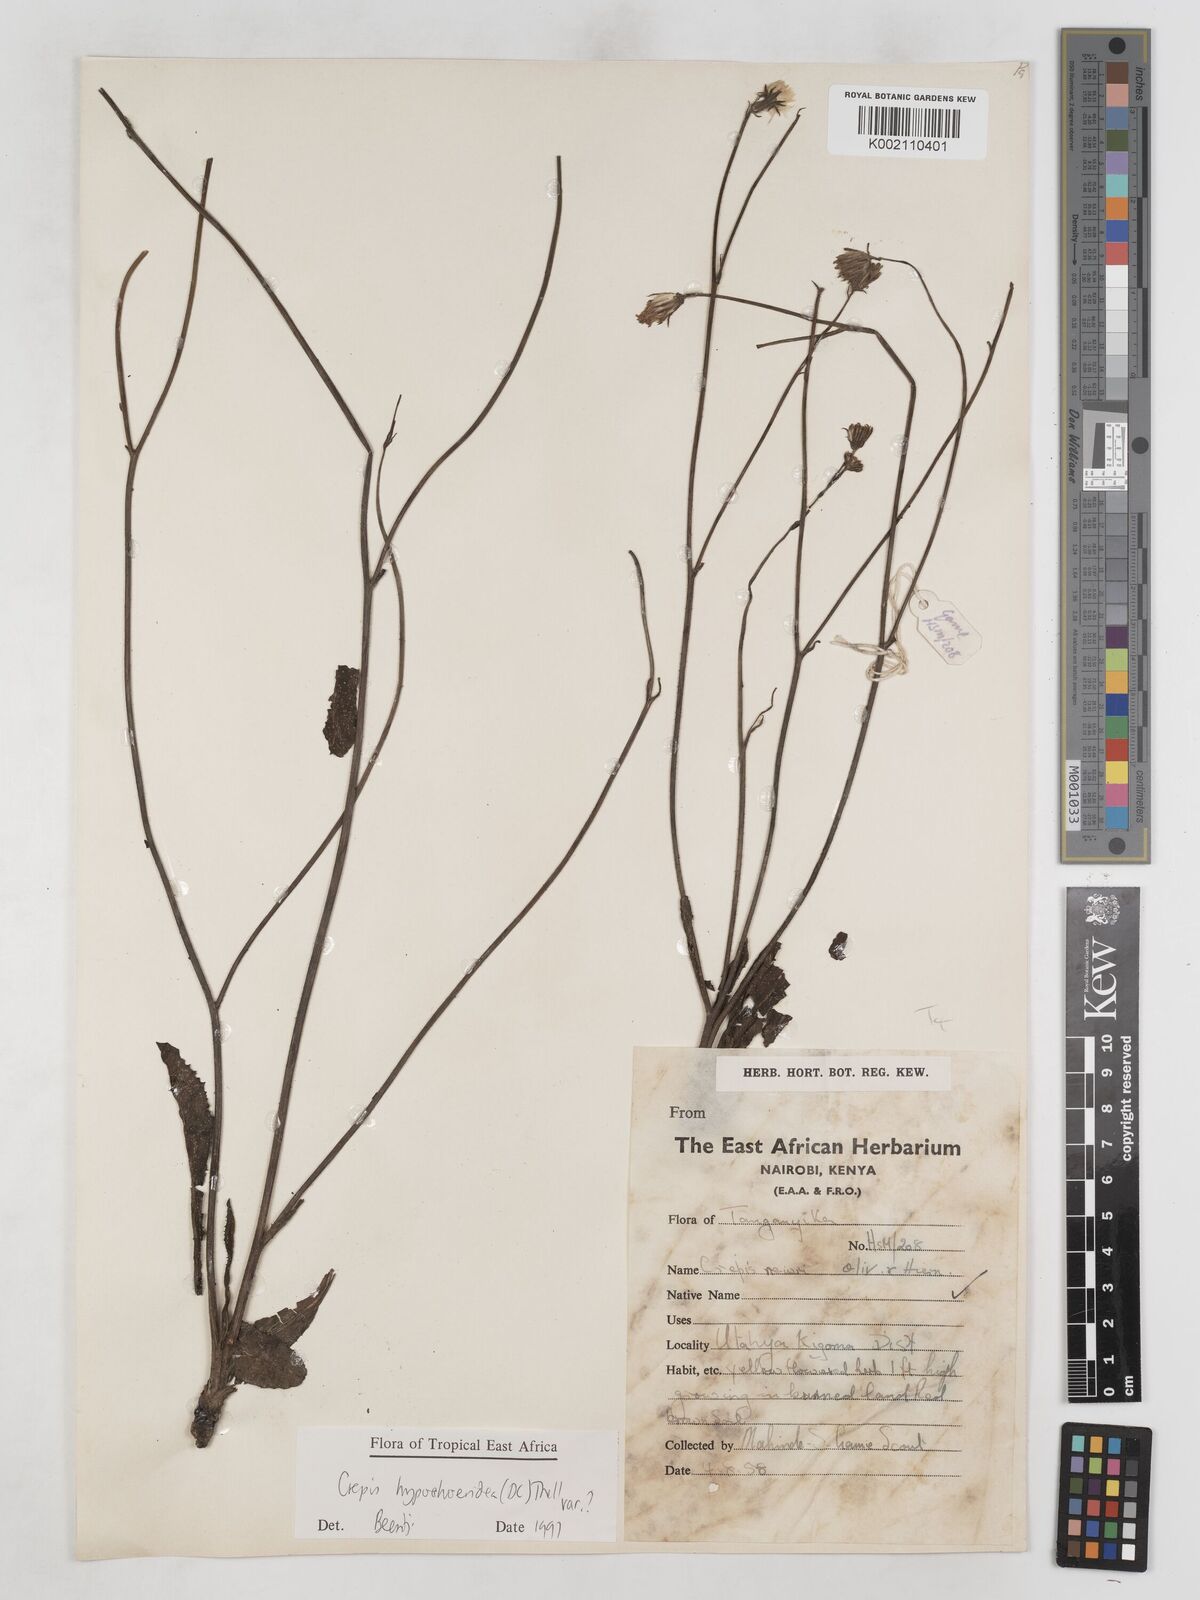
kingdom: Plantae
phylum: Tracheophyta
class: Magnoliopsida
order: Asterales
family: Asteraceae
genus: Crepis
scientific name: Crepis hypochoeridea
